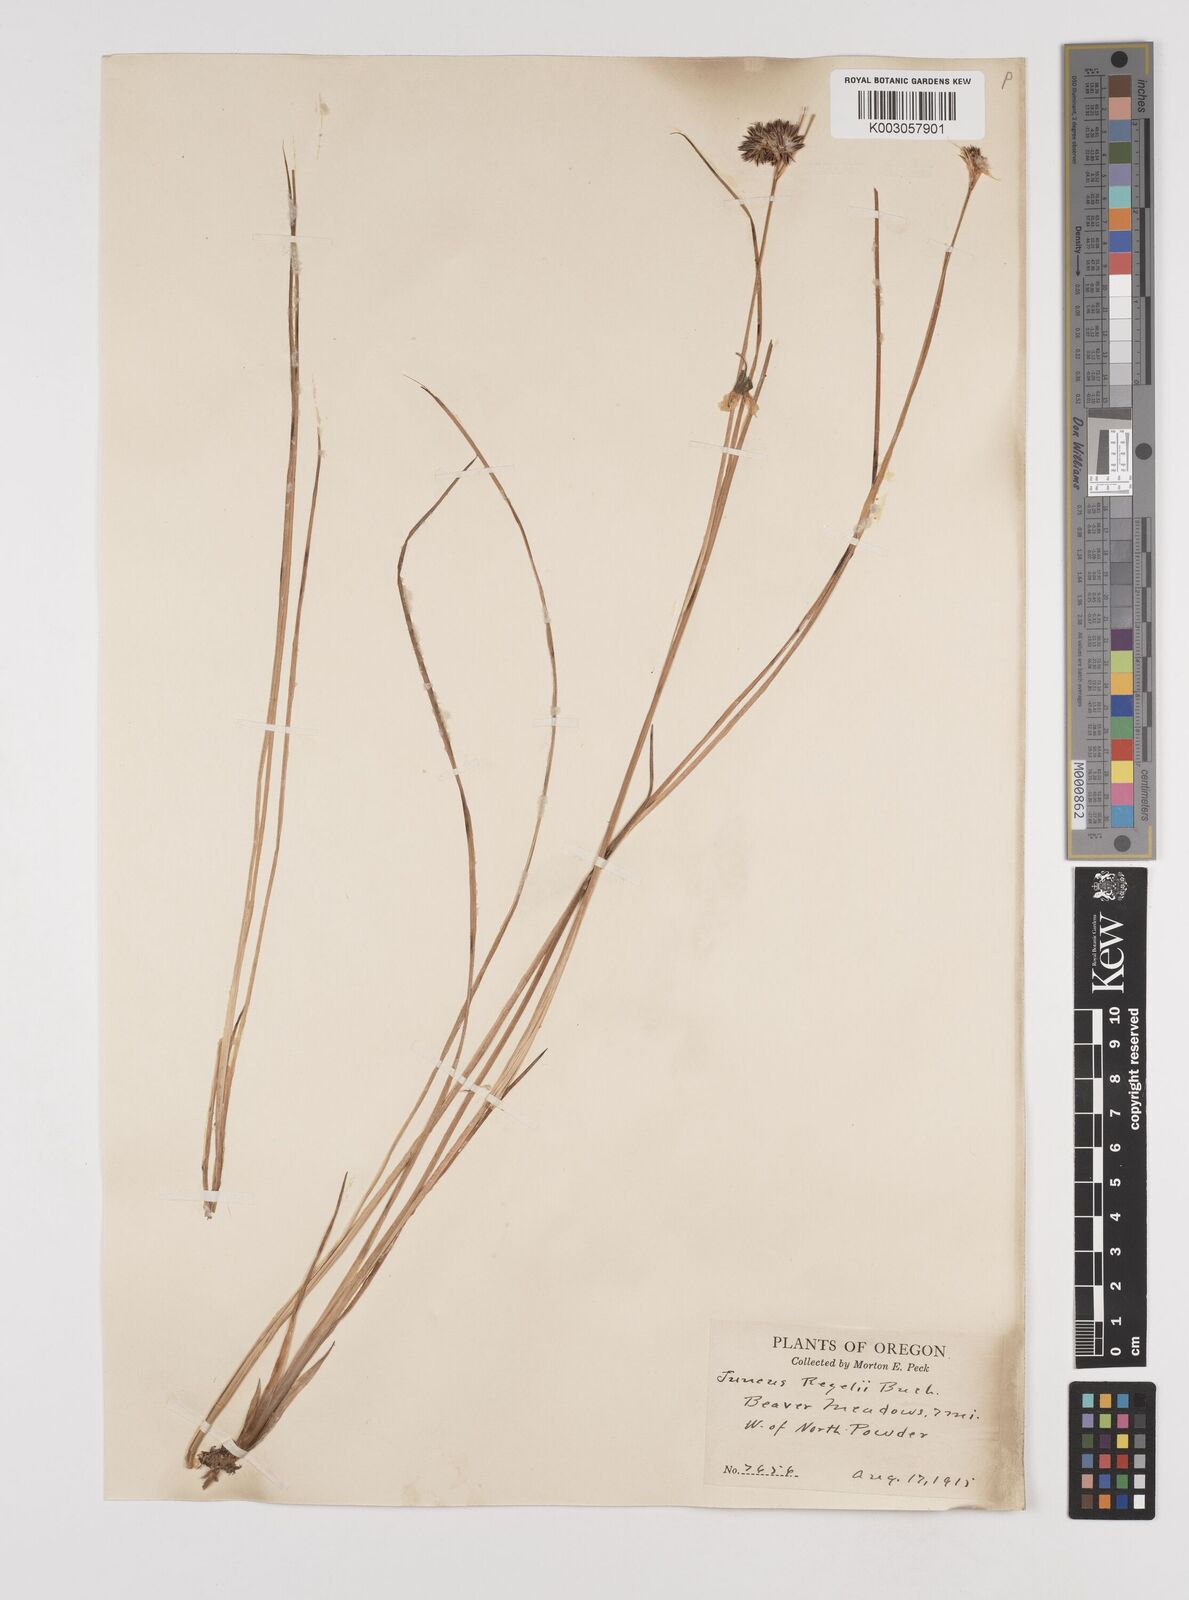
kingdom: Plantae
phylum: Tracheophyta
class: Liliopsida
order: Poales
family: Juncaceae
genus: Juncus
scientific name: Juncus regelii
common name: Regel's rush
